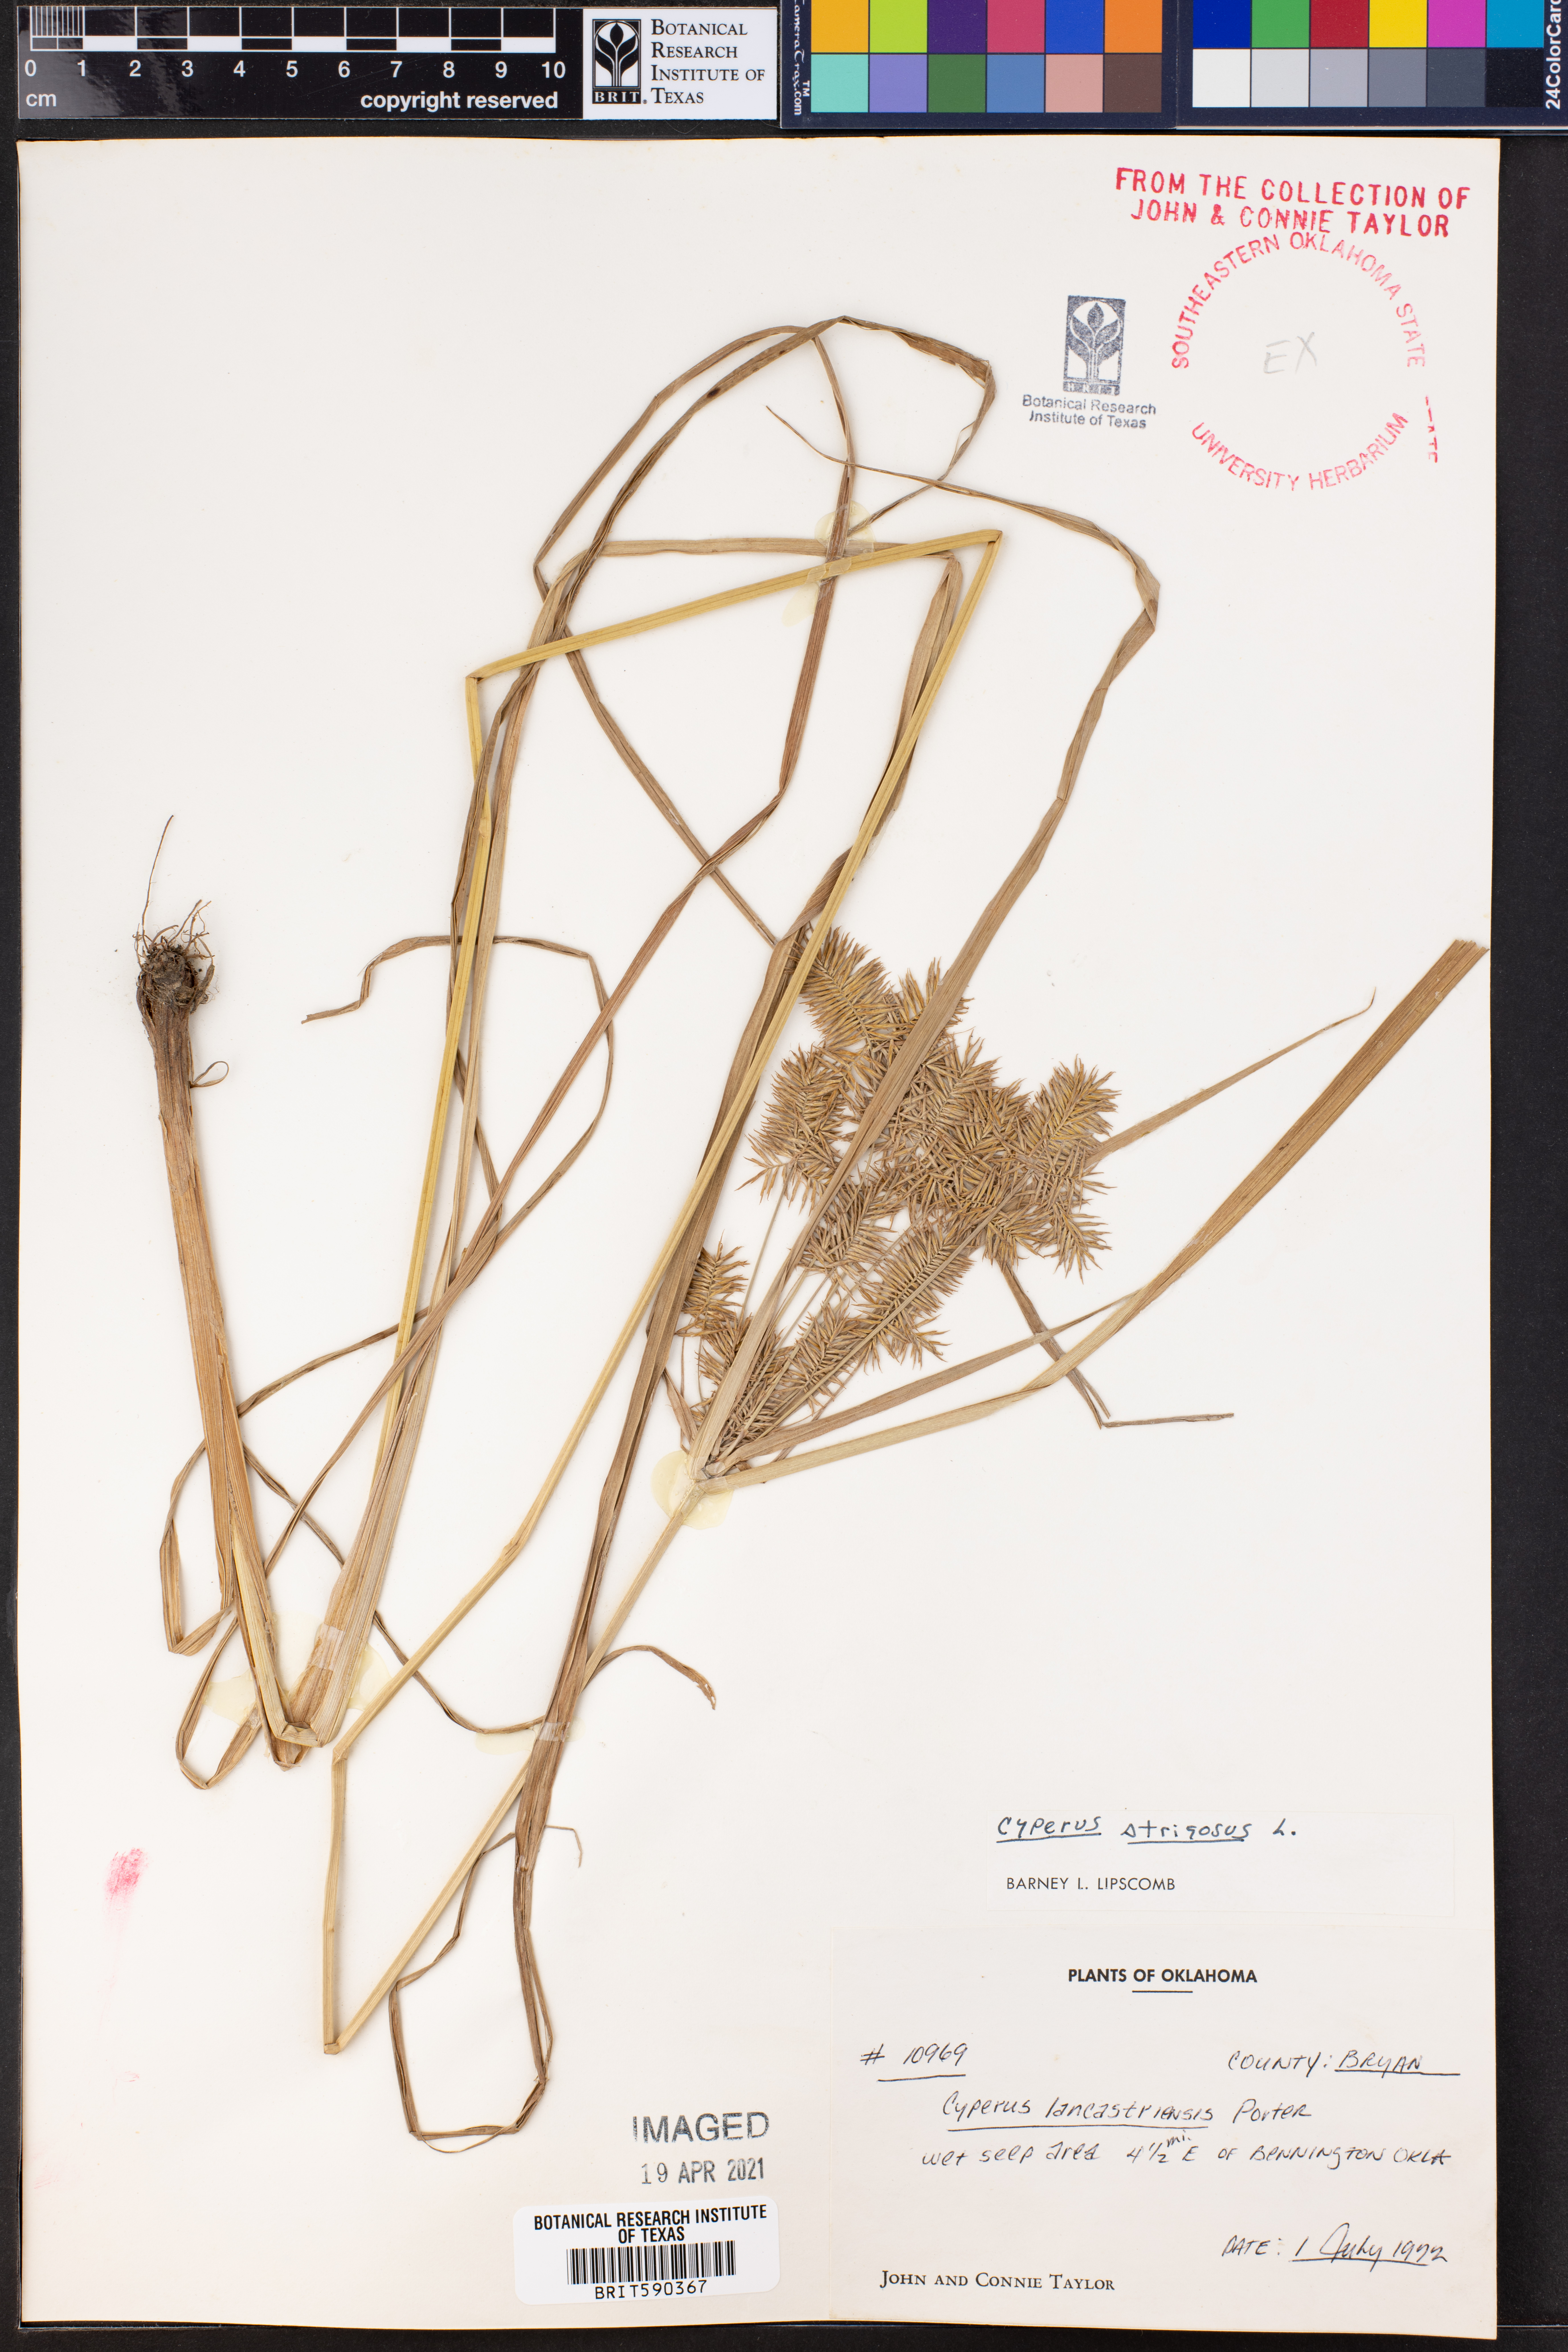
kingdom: Plantae
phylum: Tracheophyta
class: Liliopsida
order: Poales
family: Cyperaceae
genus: Cyperus
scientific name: Cyperus strigosus
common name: False nutsedge
